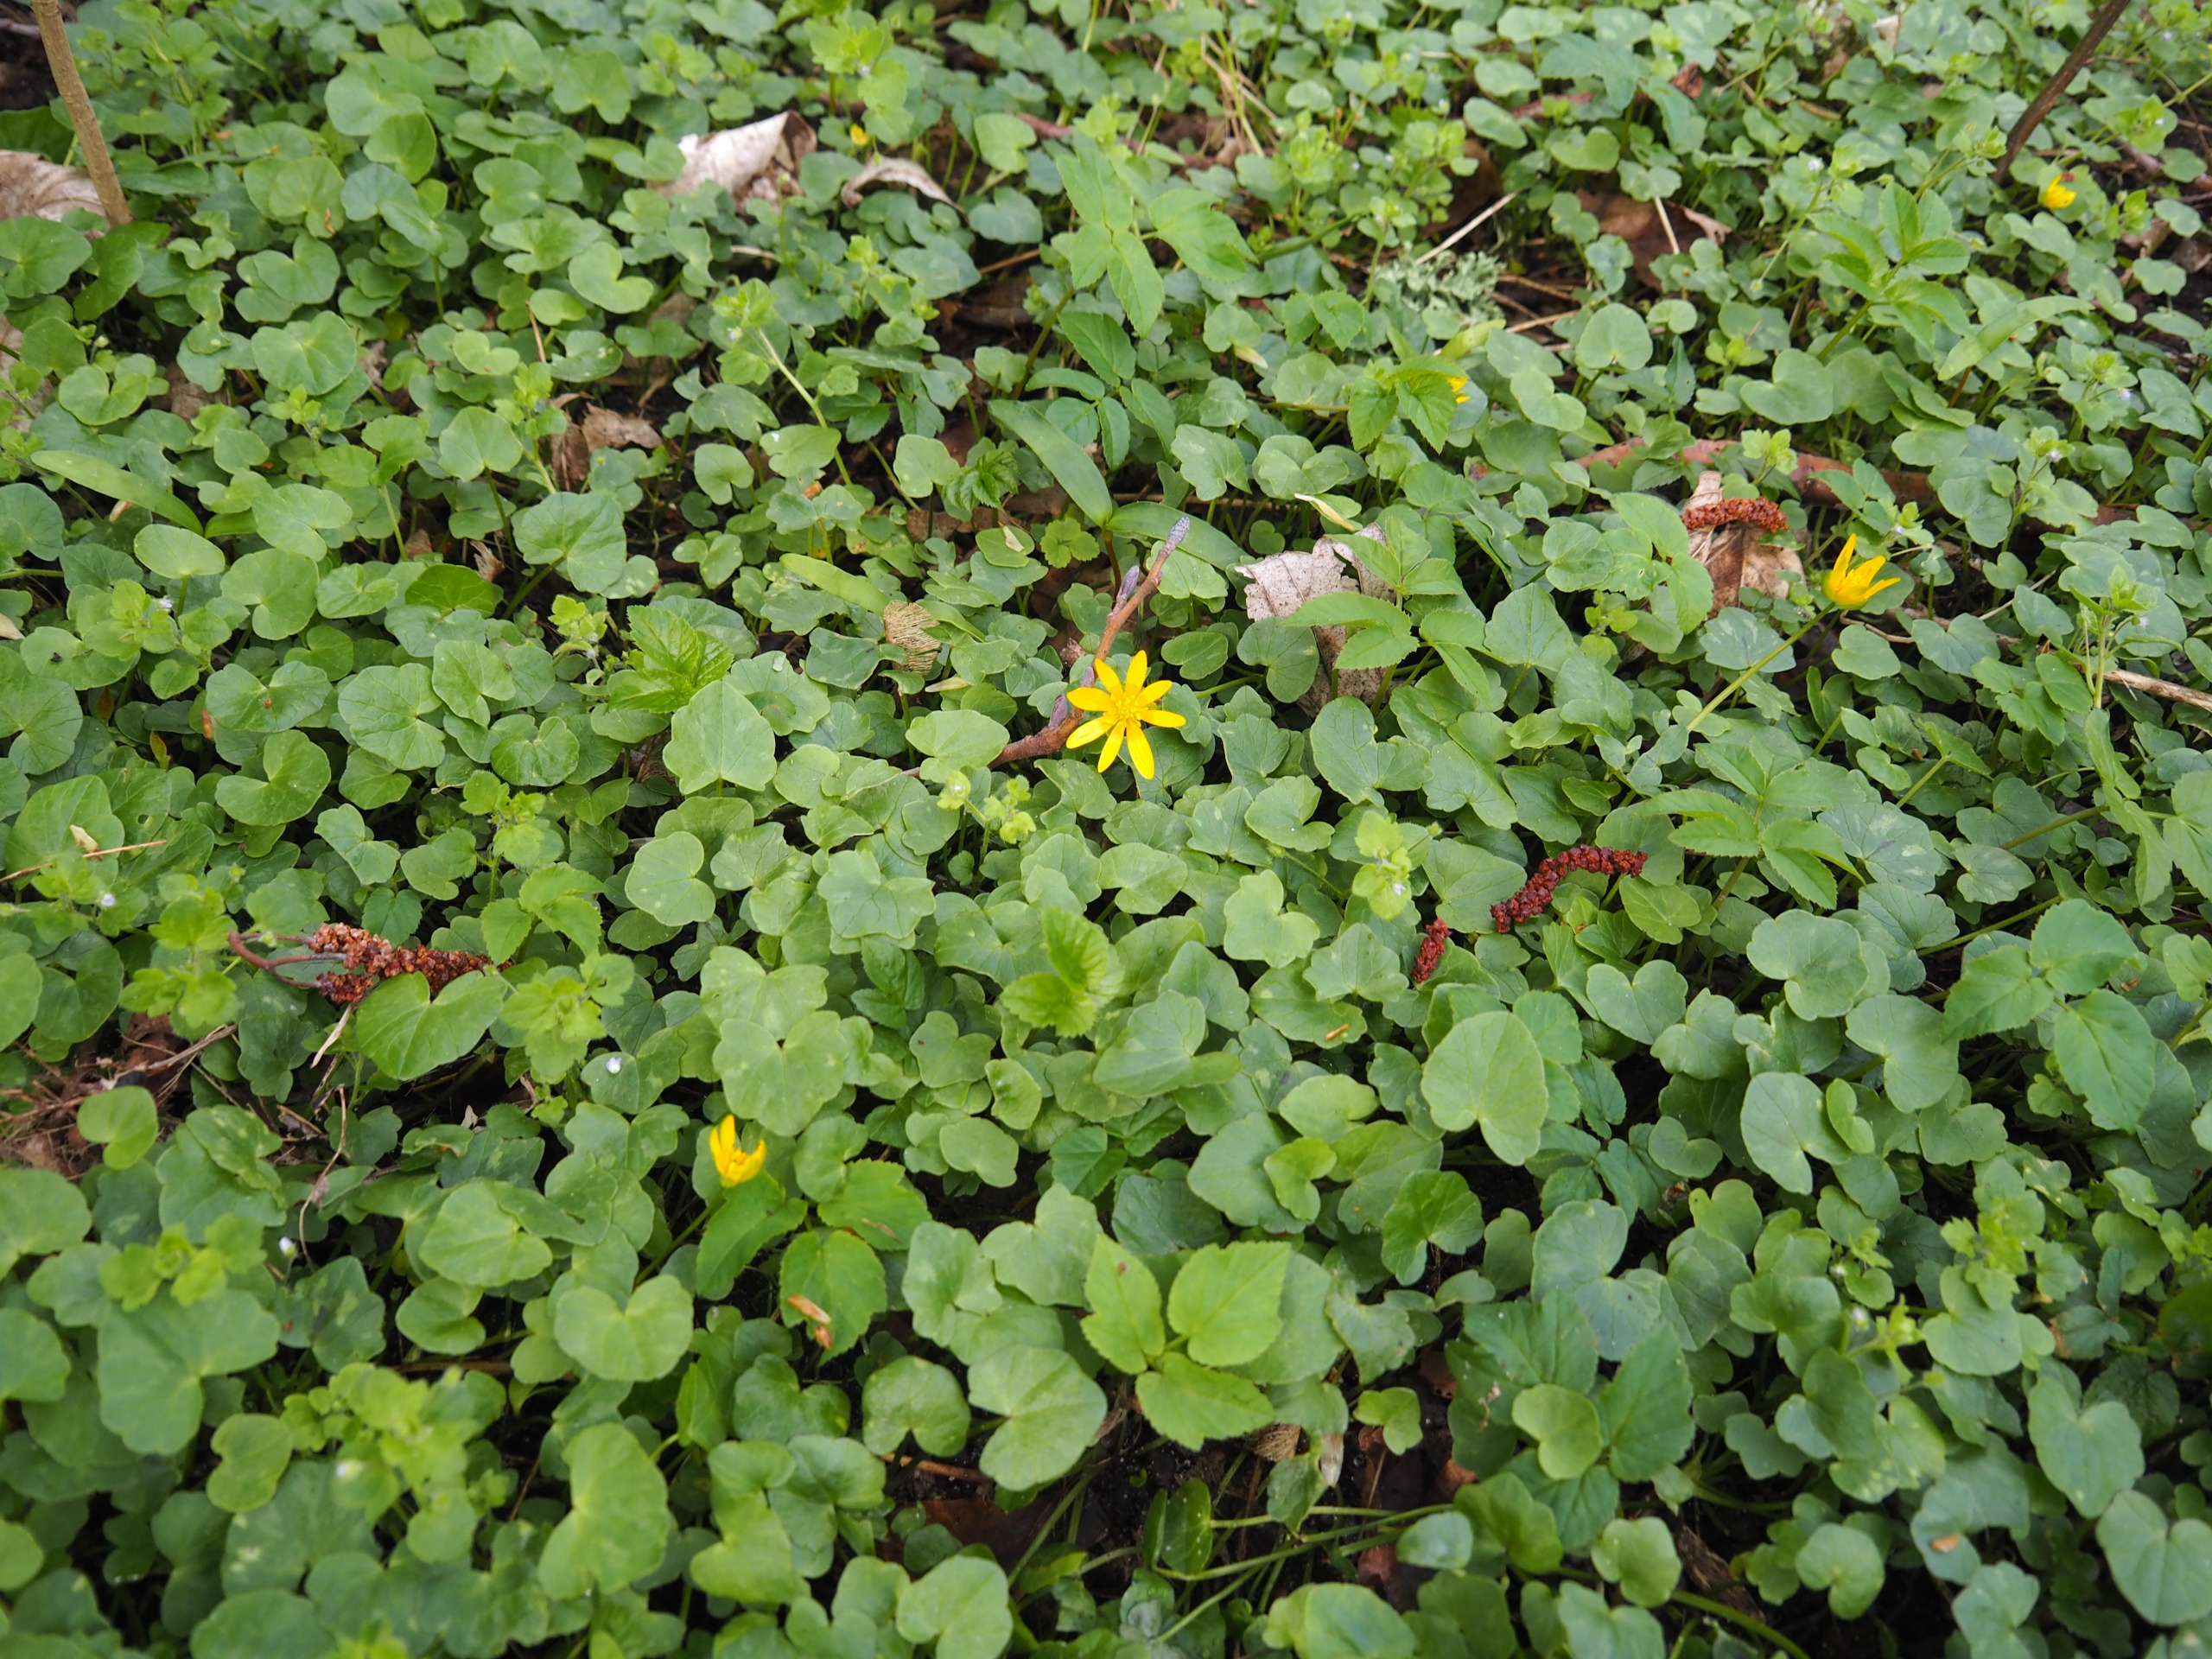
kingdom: Plantae
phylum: Tracheophyta
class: Magnoliopsida
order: Ranunculales
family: Ranunculaceae
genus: Ficaria
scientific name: Ficaria verna
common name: Vorterod
